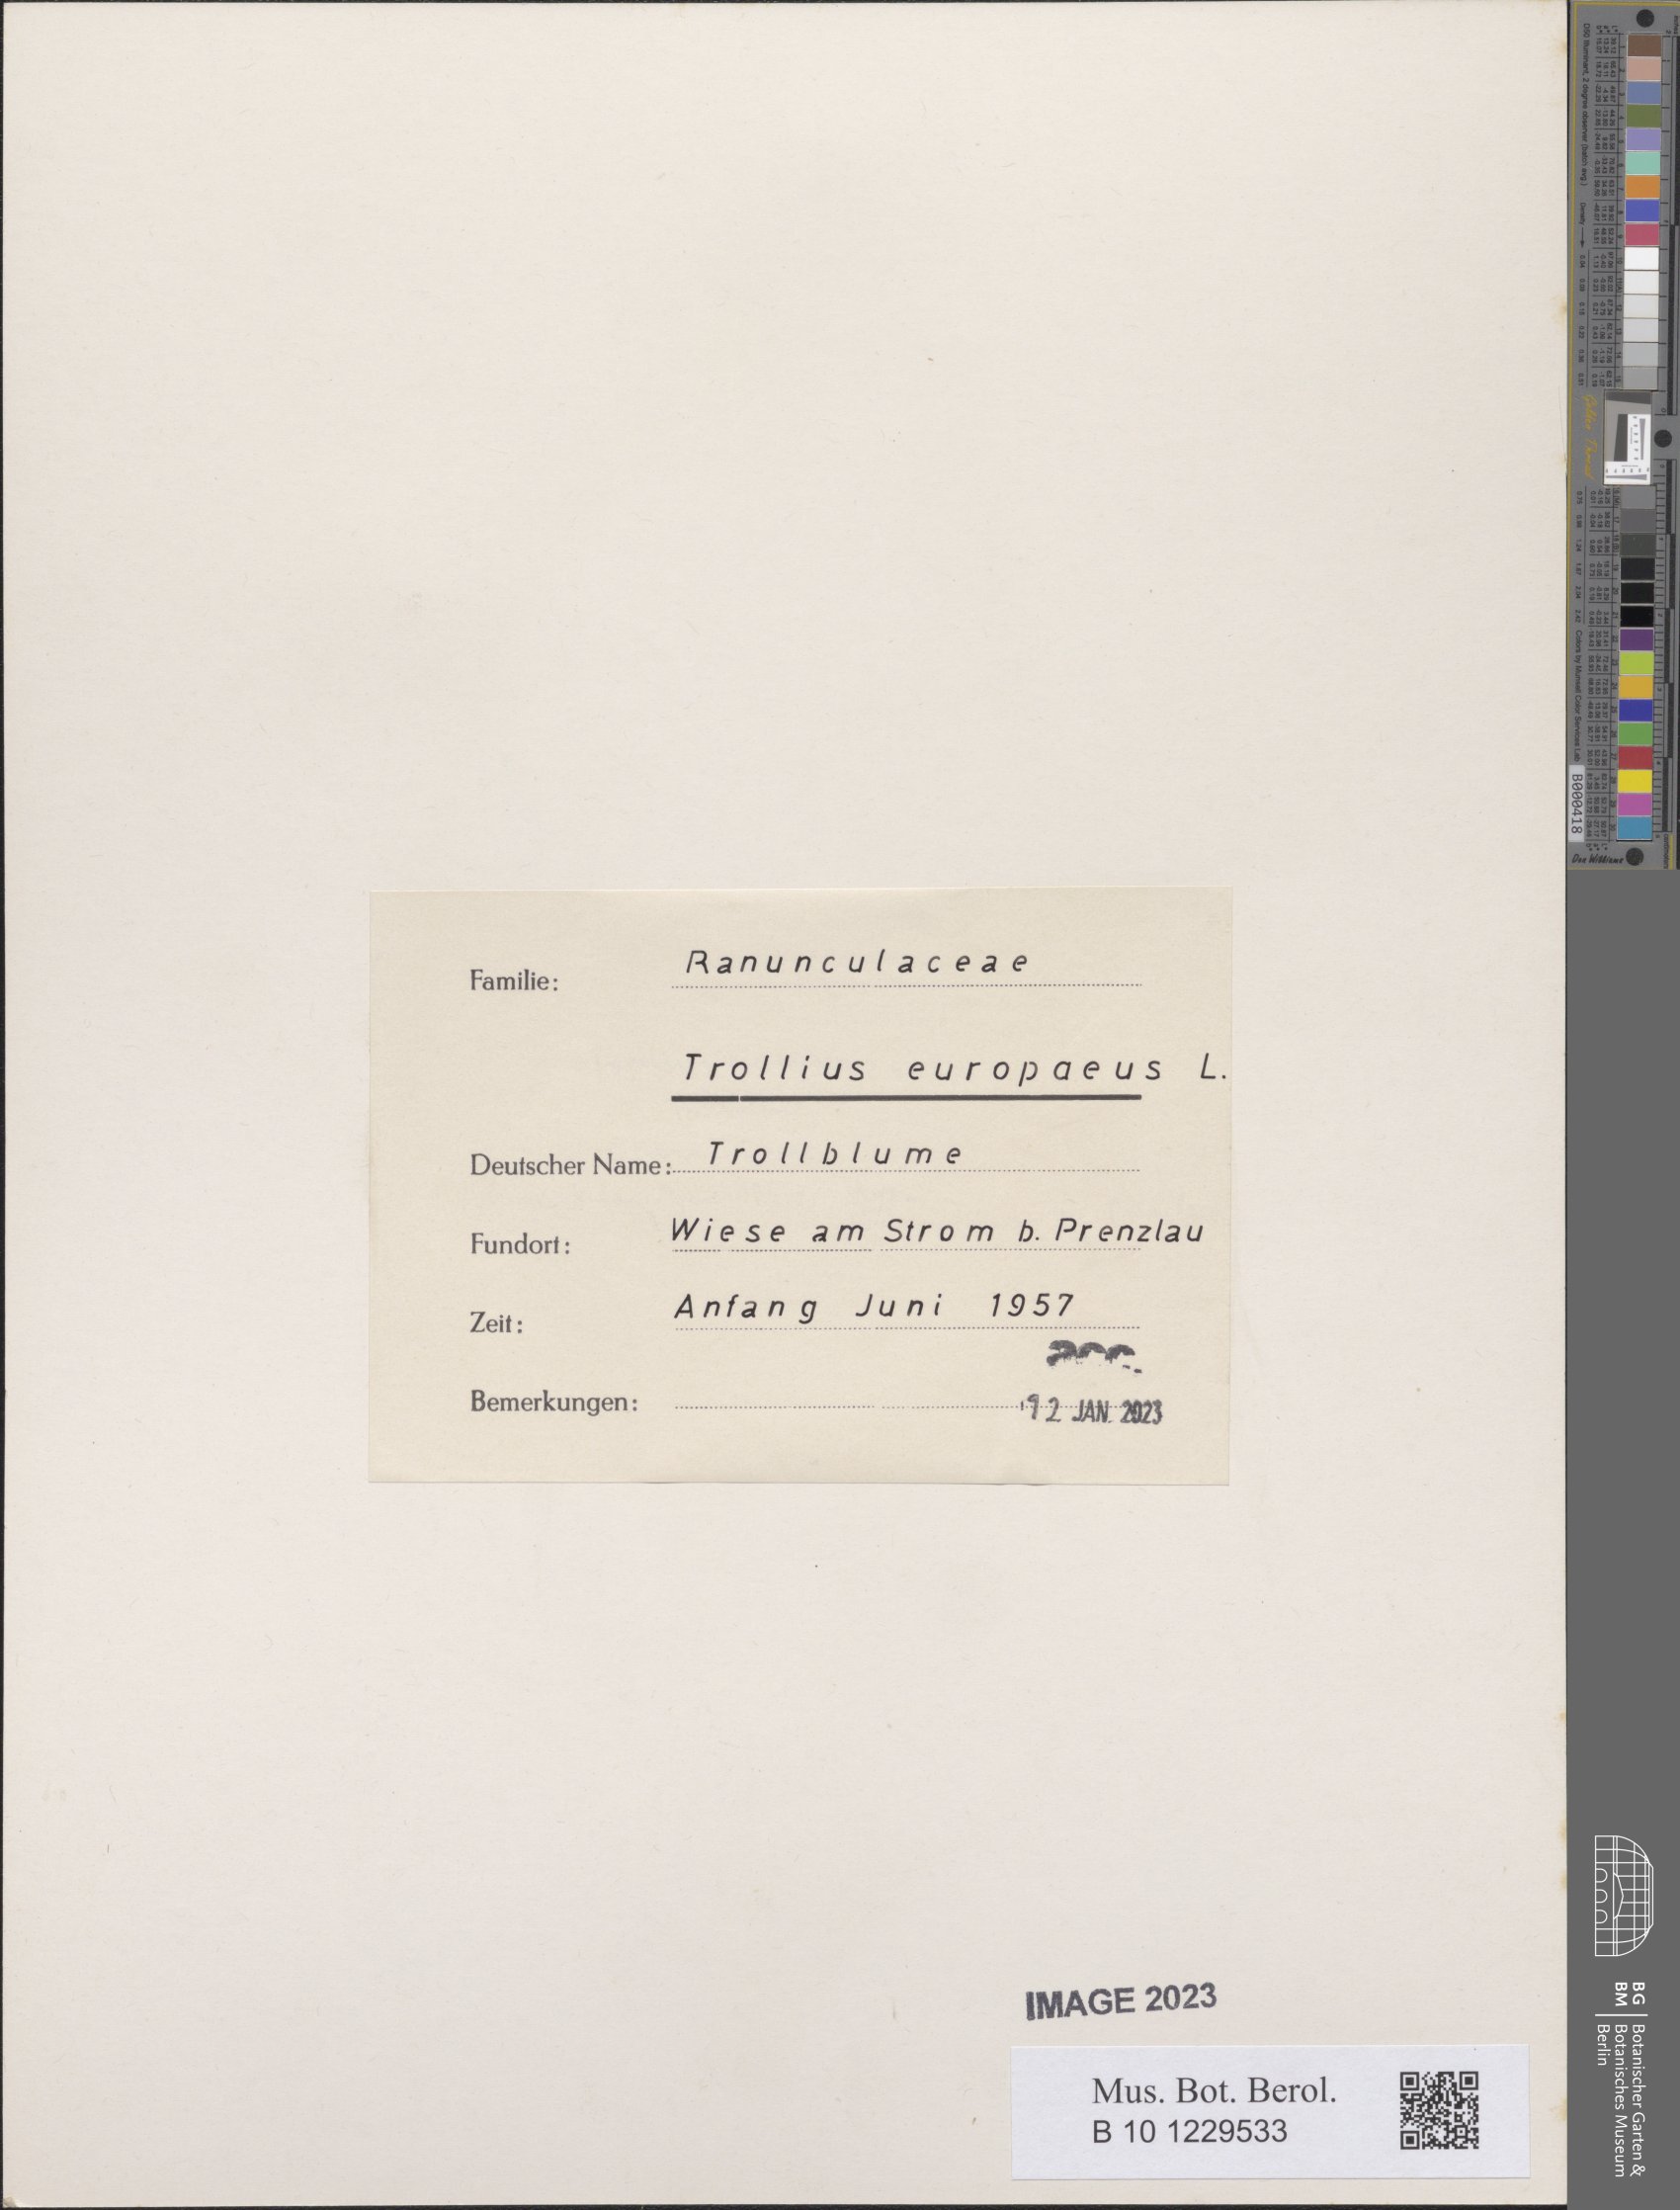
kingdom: Plantae
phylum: Tracheophyta
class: Magnoliopsida
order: Ranunculales
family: Ranunculaceae
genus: Trollius
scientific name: Trollius europaeus
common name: European globeflower
